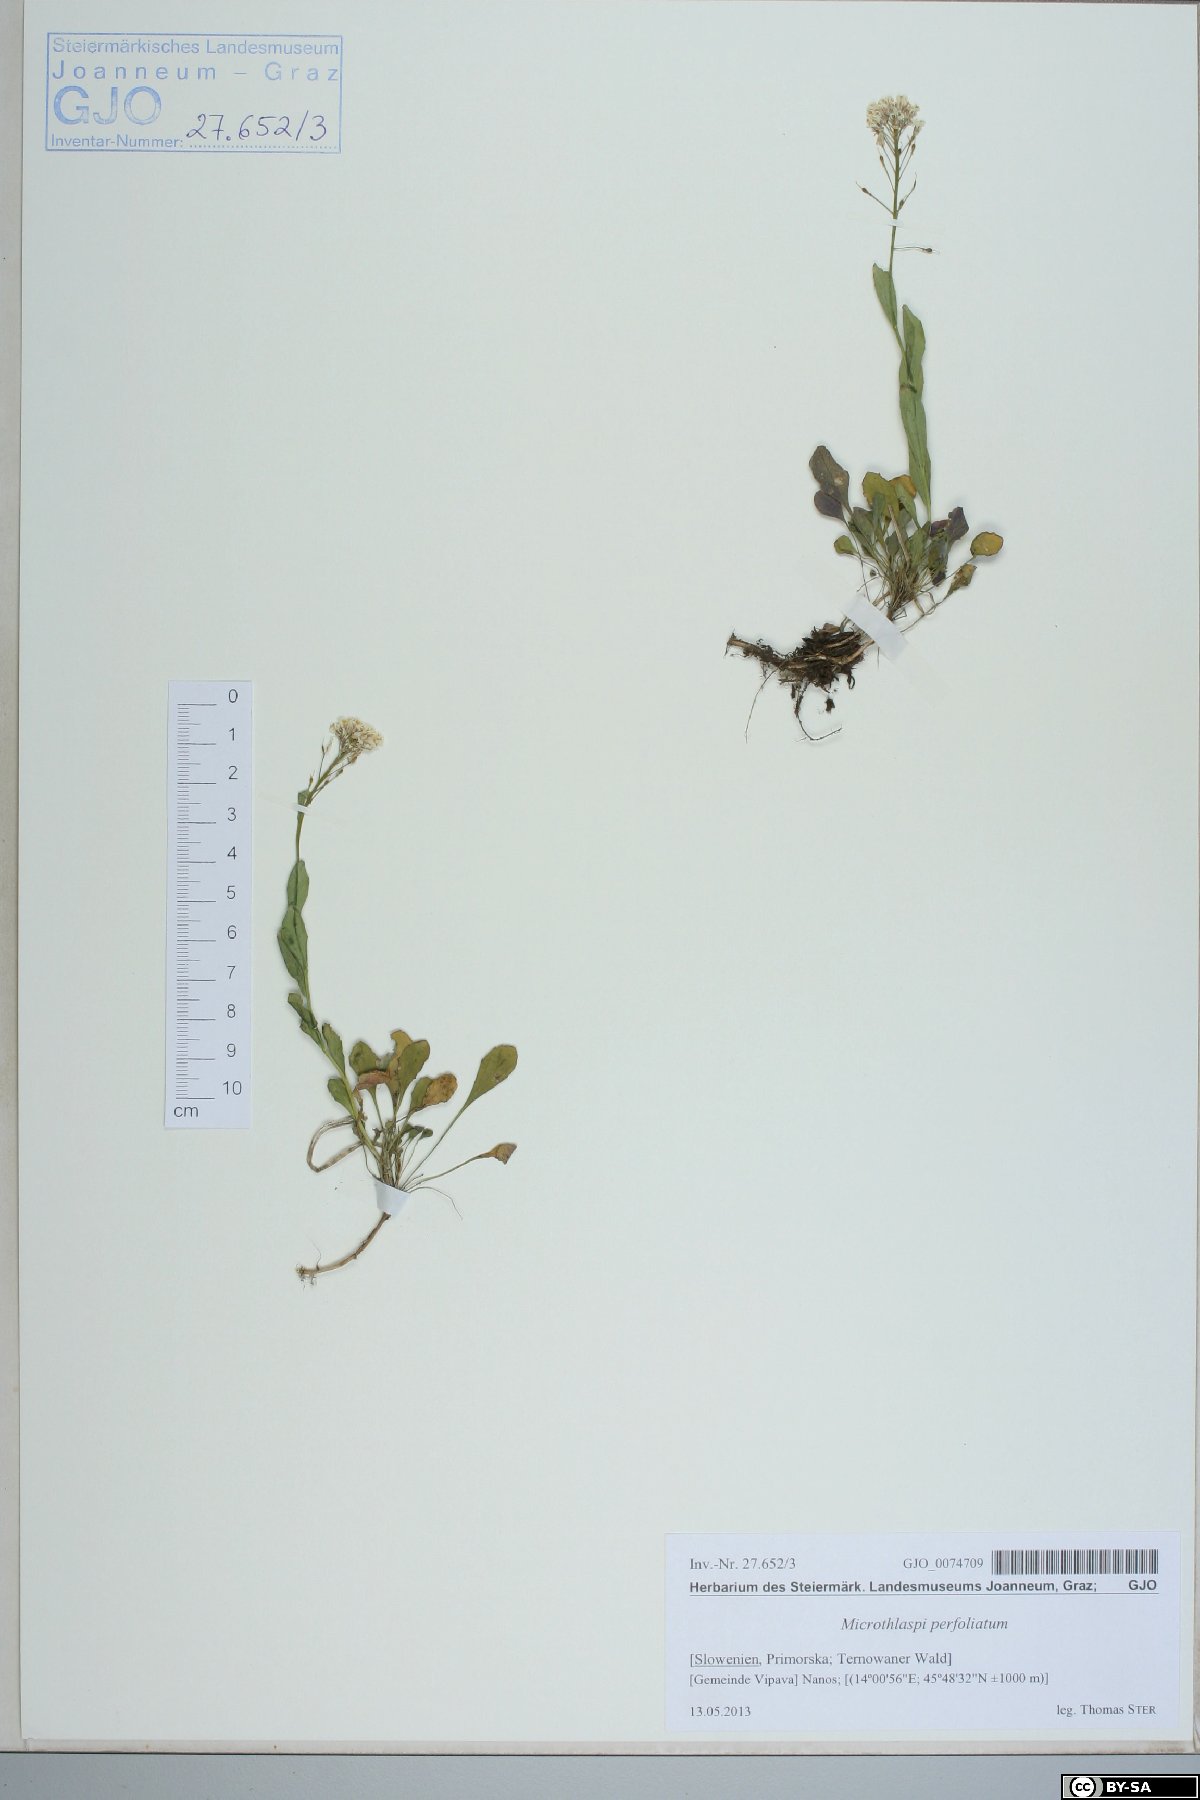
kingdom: Plantae
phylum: Tracheophyta
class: Magnoliopsida
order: Brassicales
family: Brassicaceae
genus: Noccaea
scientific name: Noccaea perfoliata
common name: Perfoliate pennycress
